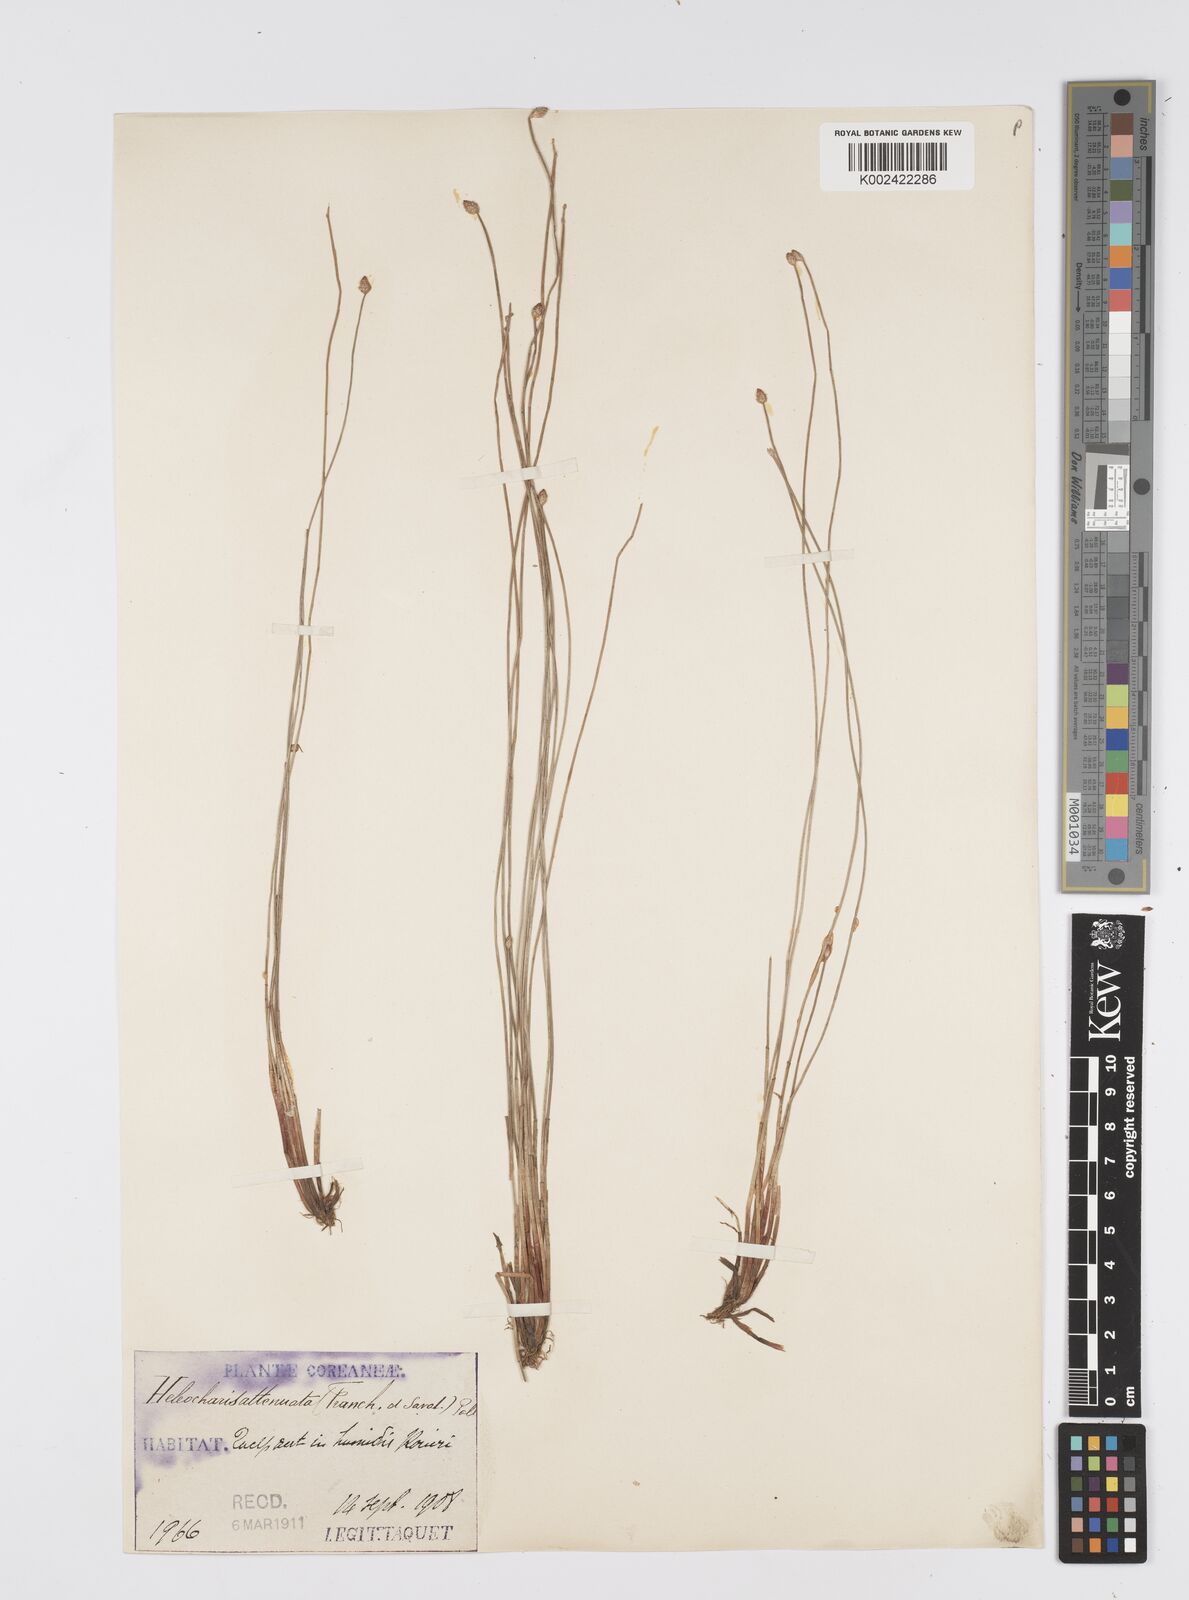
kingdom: Plantae
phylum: Tracheophyta
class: Liliopsida
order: Poales
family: Cyperaceae
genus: Eleocharis
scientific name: Eleocharis attenuata
